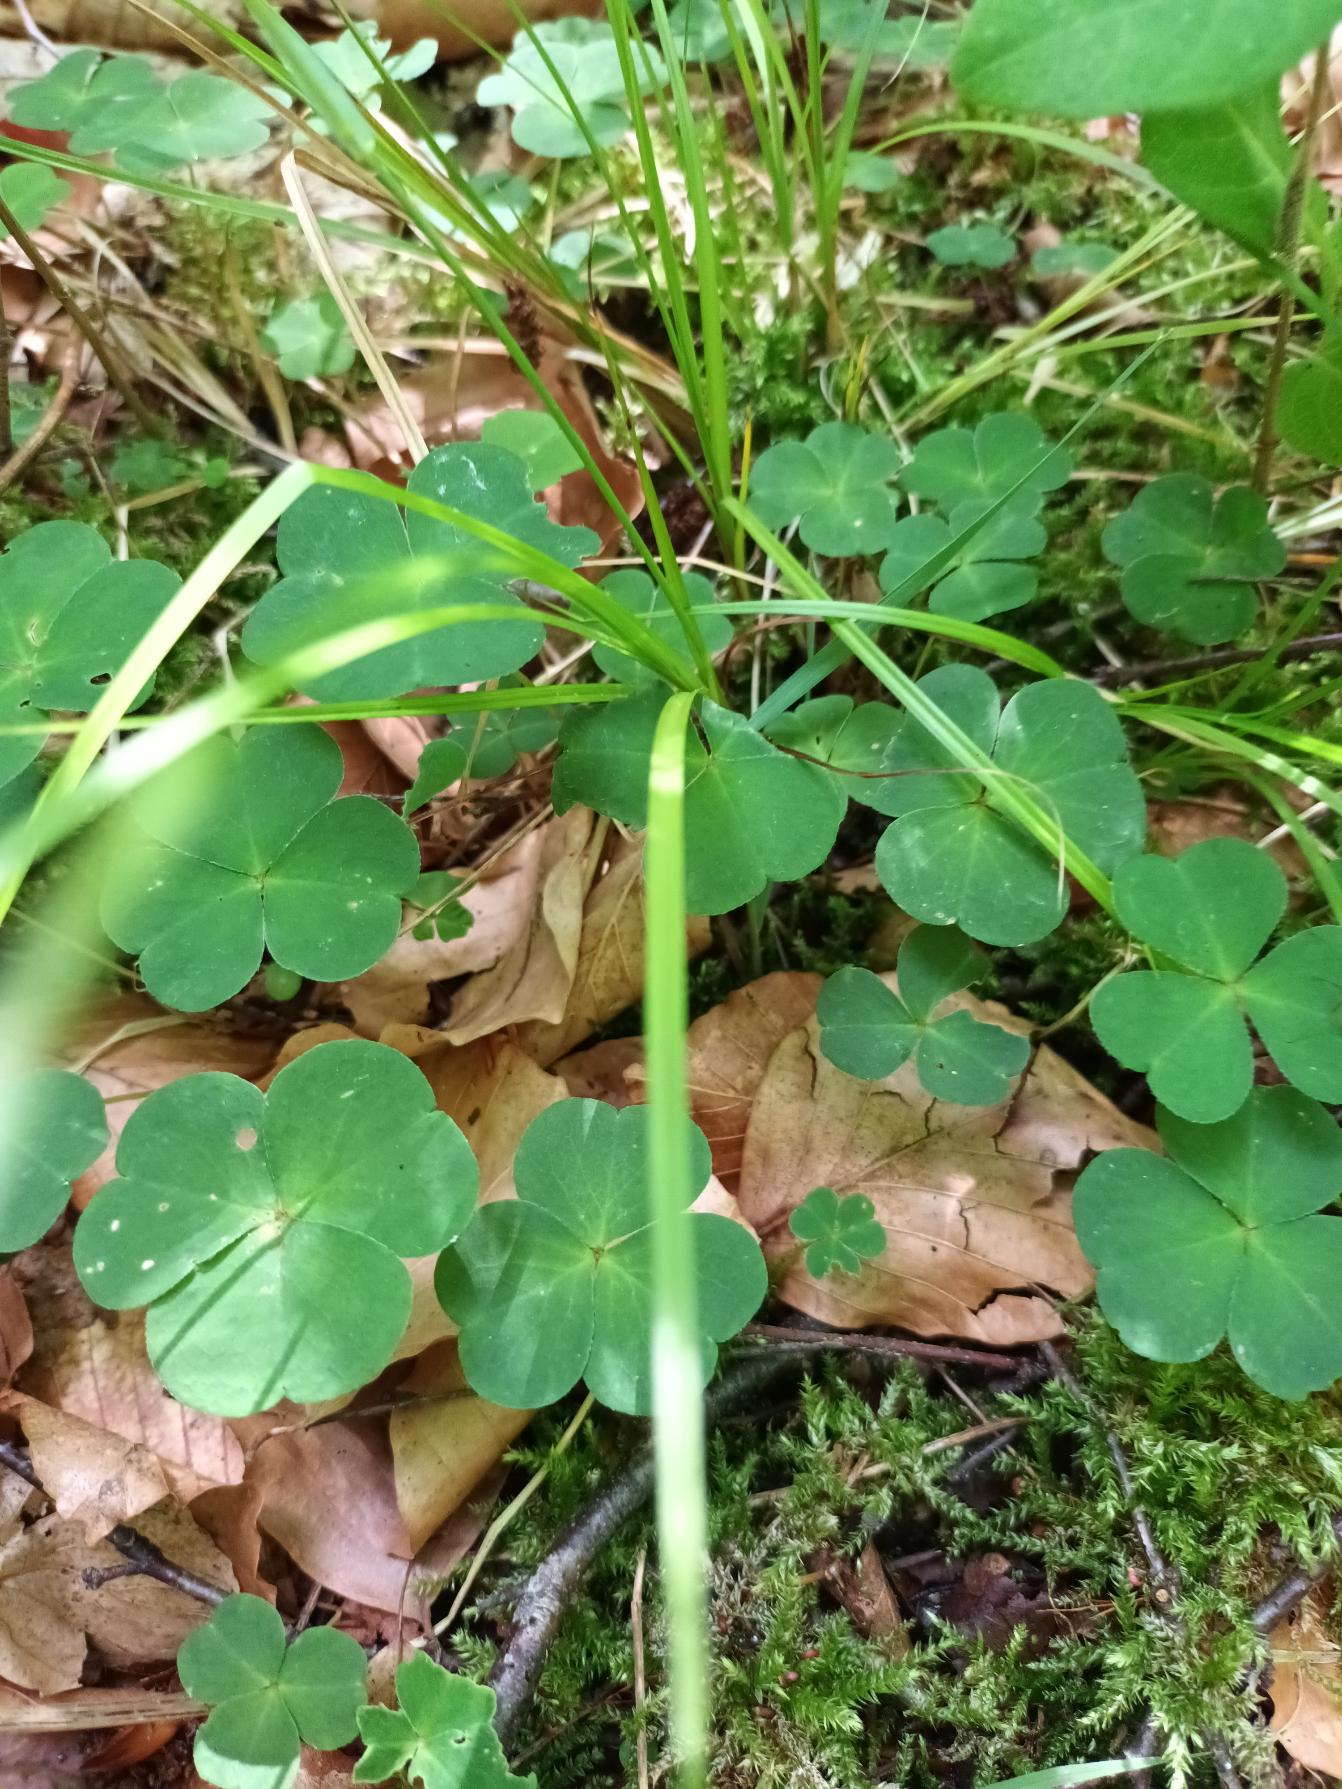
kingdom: Plantae
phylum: Tracheophyta
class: Magnoliopsida
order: Oxalidales
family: Oxalidaceae
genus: Oxalis
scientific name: Oxalis acetosella
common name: Skovsyre
